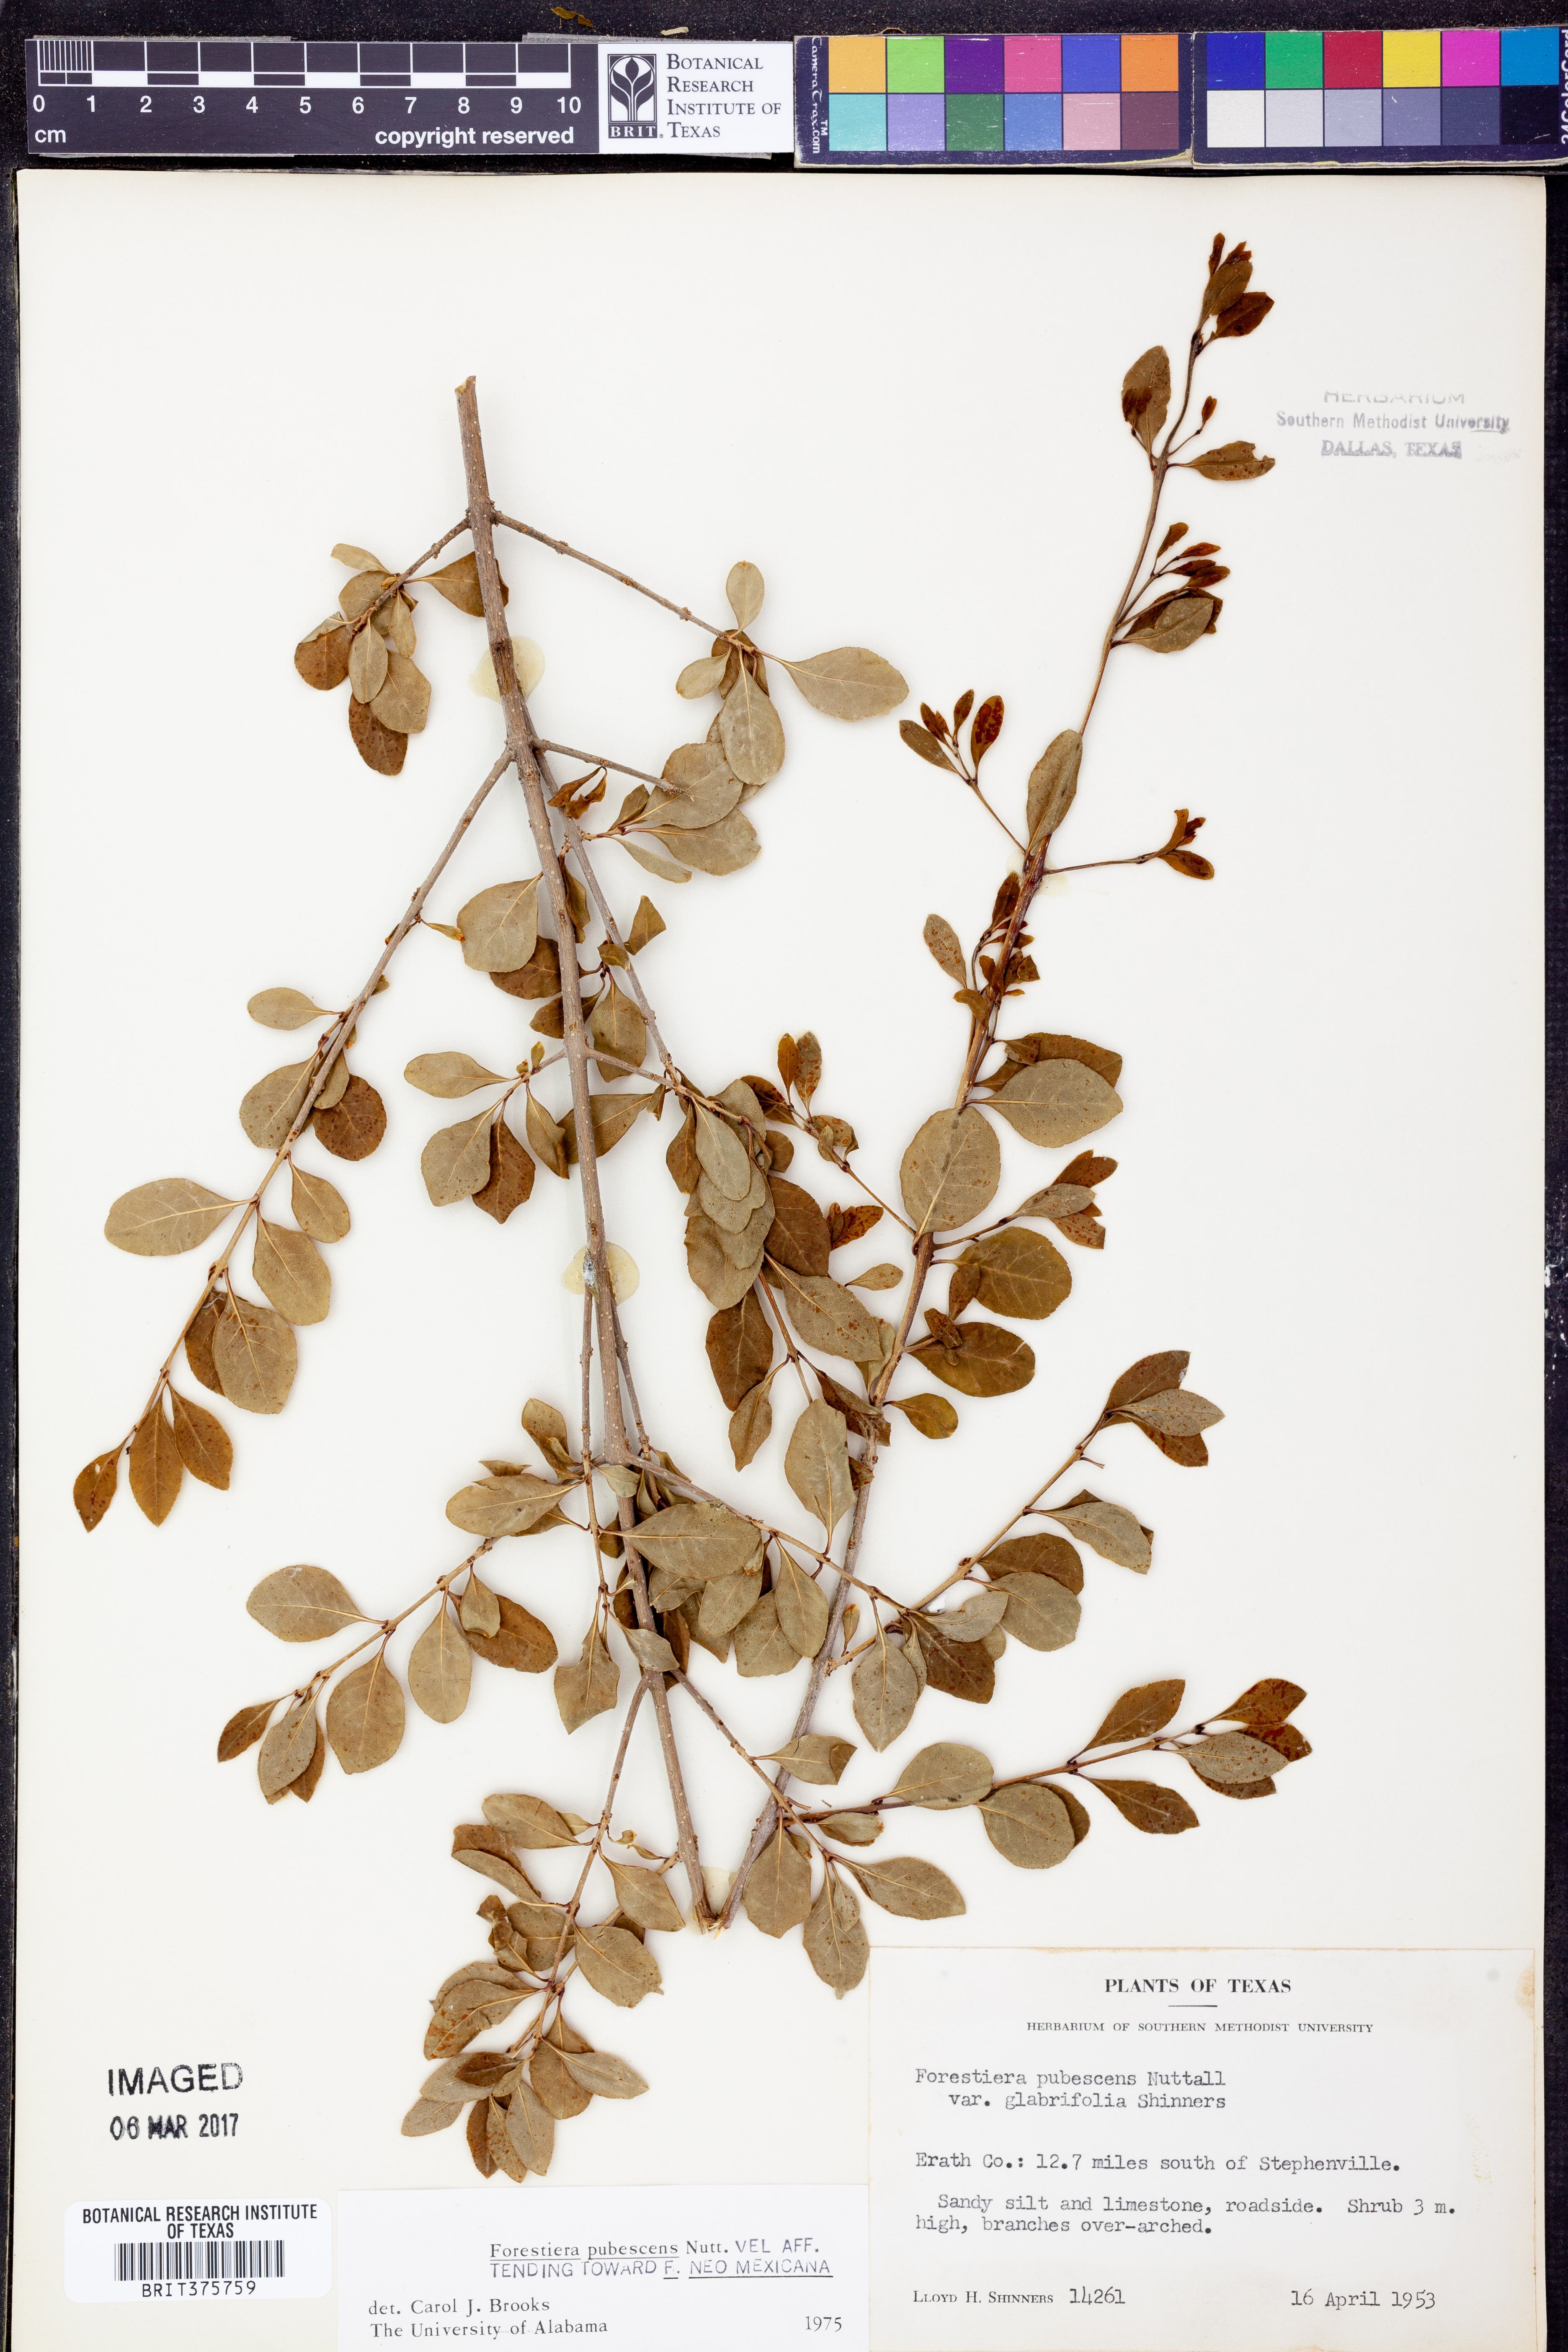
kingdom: Plantae
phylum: Tracheophyta
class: Magnoliopsida
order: Lamiales
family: Oleaceae
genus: Forestiera
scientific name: Forestiera pubescens
